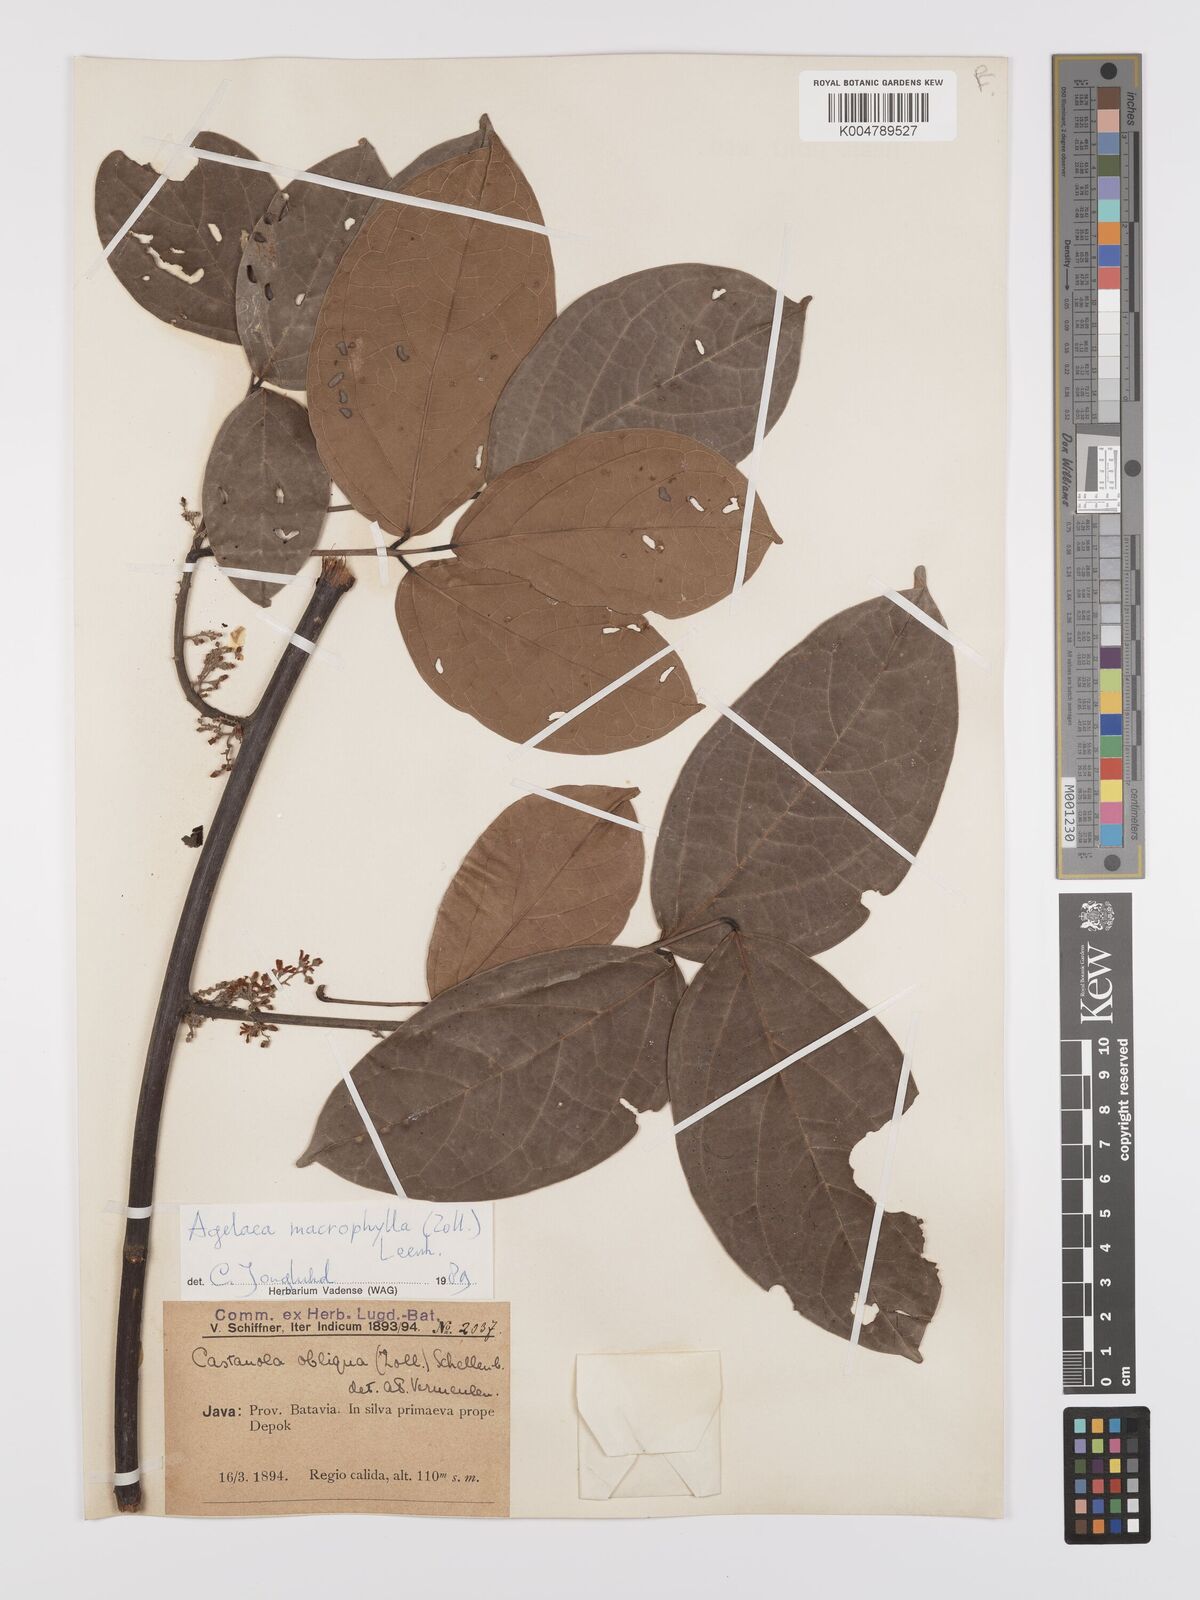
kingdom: Plantae
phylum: Tracheophyta
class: Magnoliopsida
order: Oxalidales
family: Connaraceae
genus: Agelaea
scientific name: Agelaea trinervis
